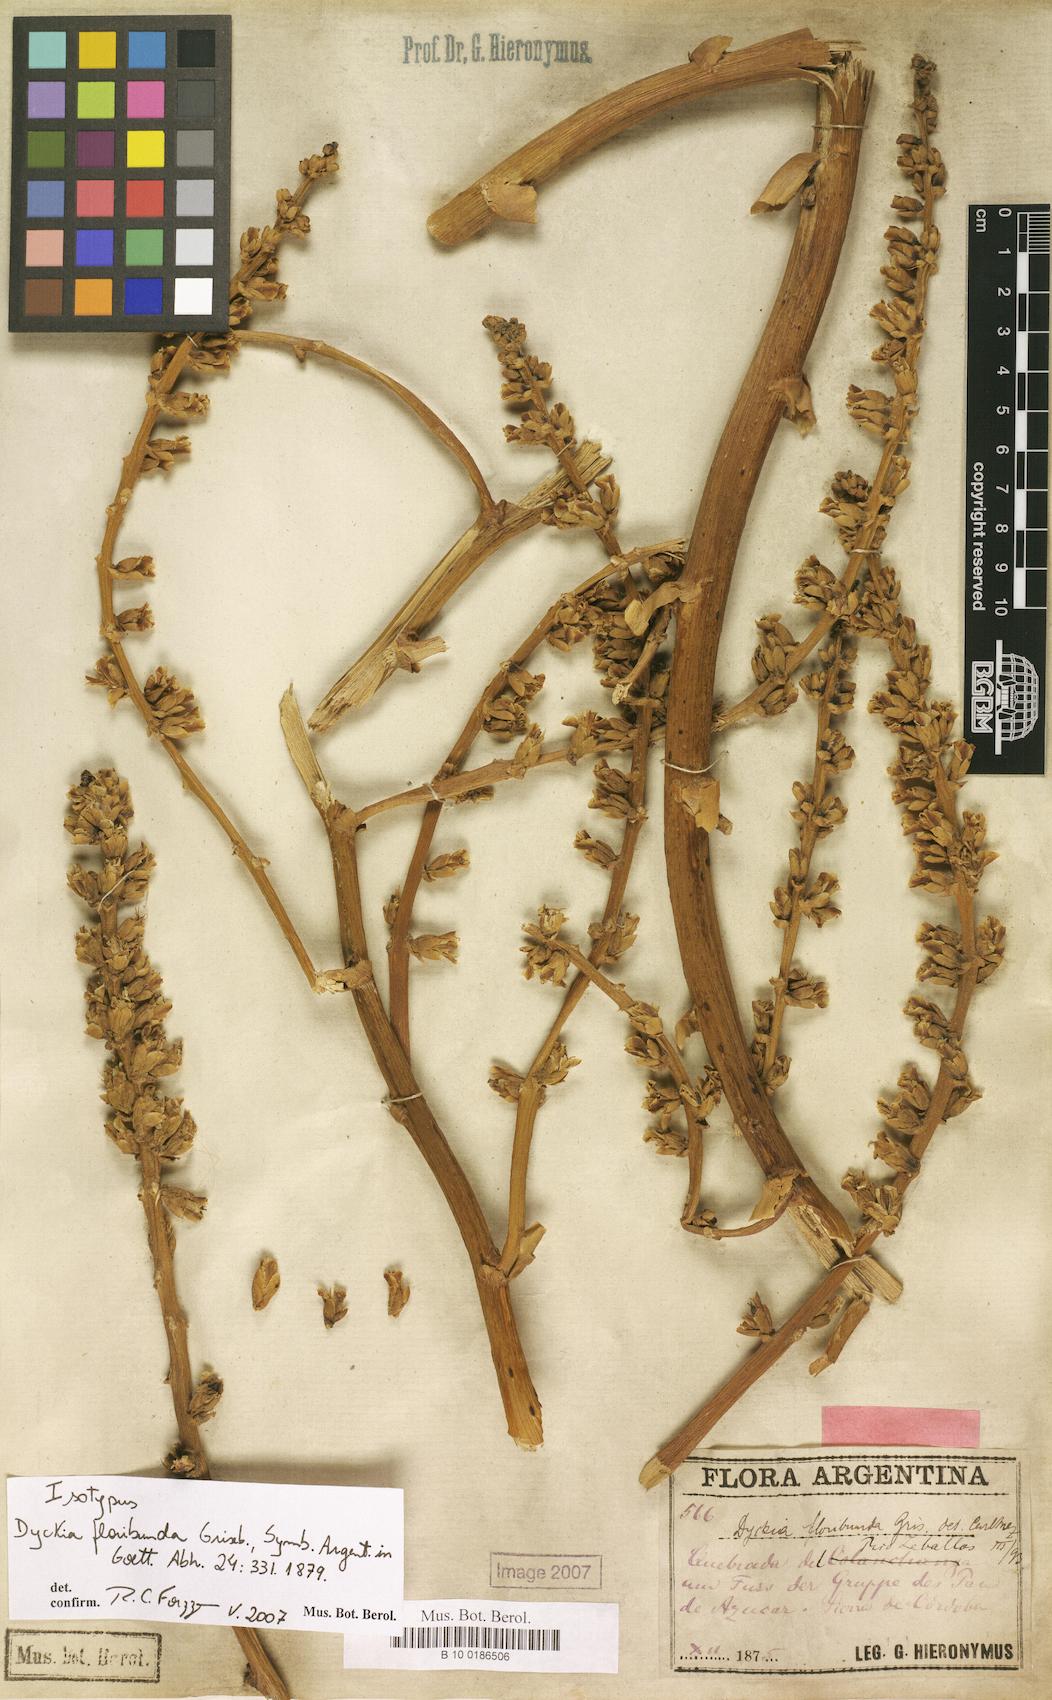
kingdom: Plantae
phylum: Tracheophyta
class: Liliopsida
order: Poales
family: Bromeliaceae
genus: Dyckia
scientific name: Dyckia floribunda
